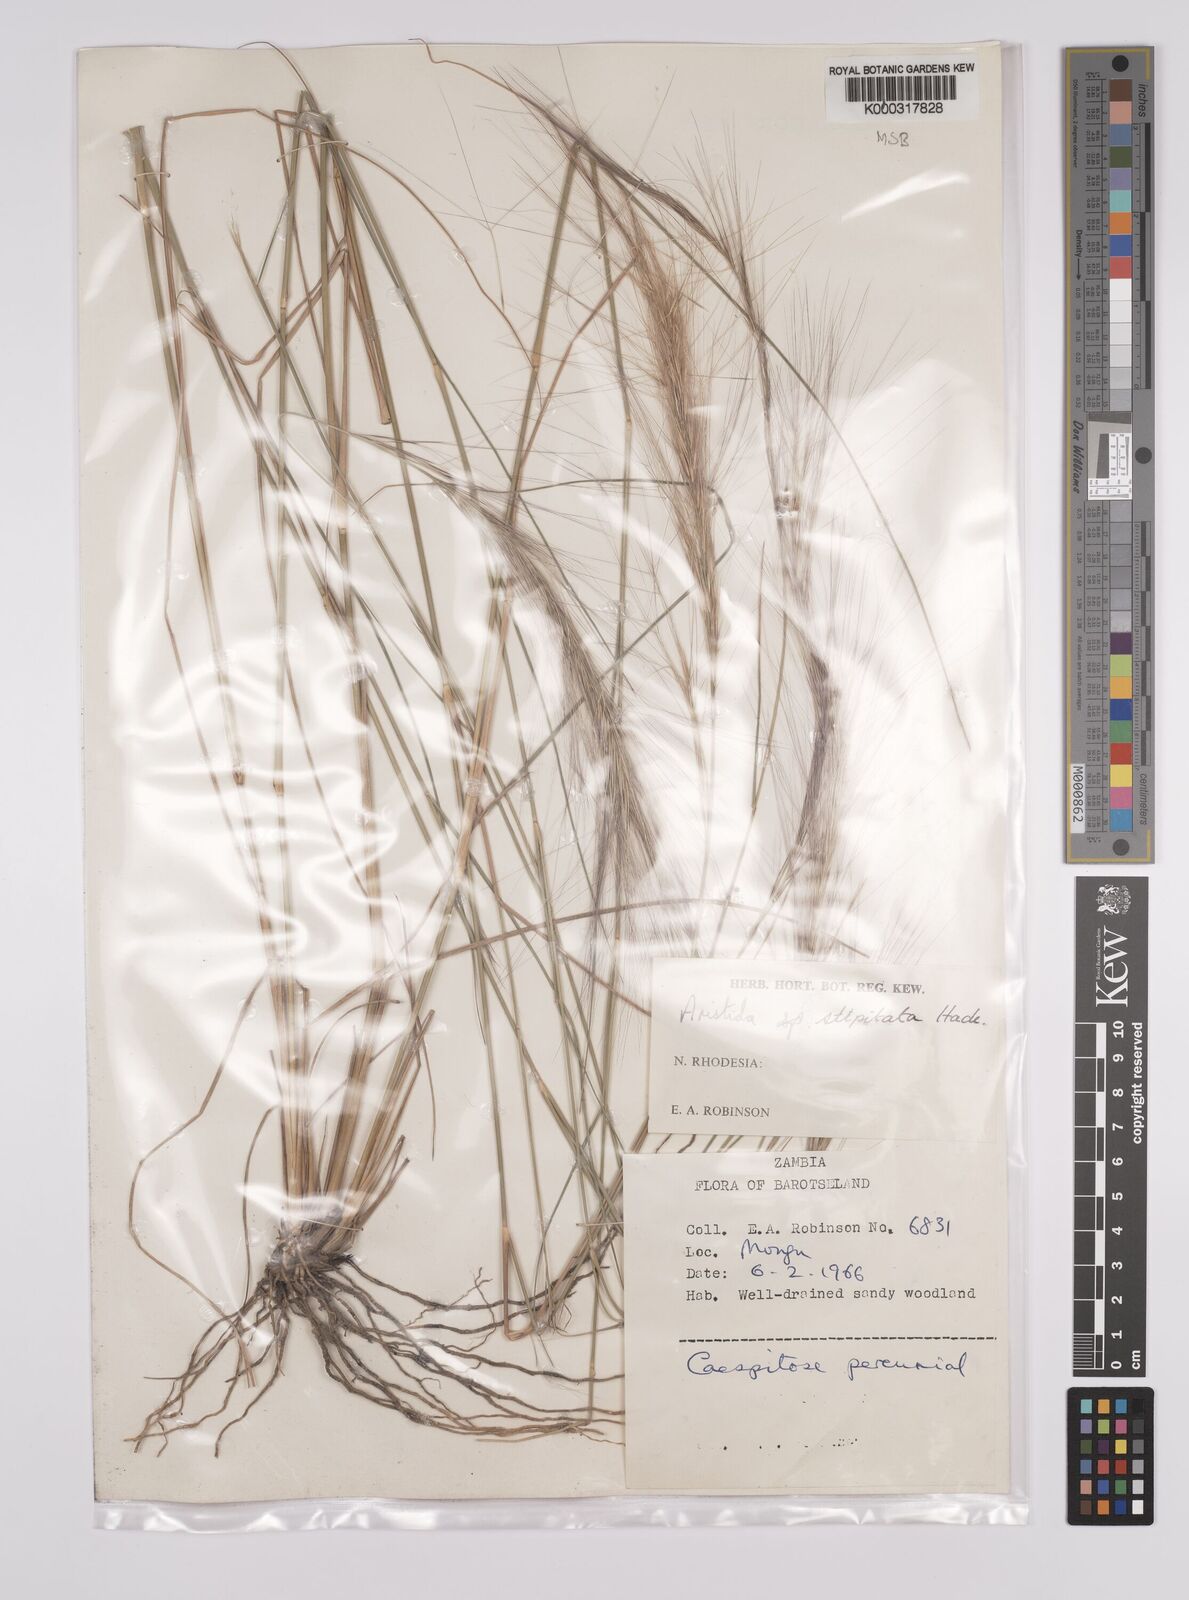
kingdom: Plantae
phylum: Tracheophyta
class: Liliopsida
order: Poales
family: Poaceae
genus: Aristida
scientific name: Aristida stipitata
